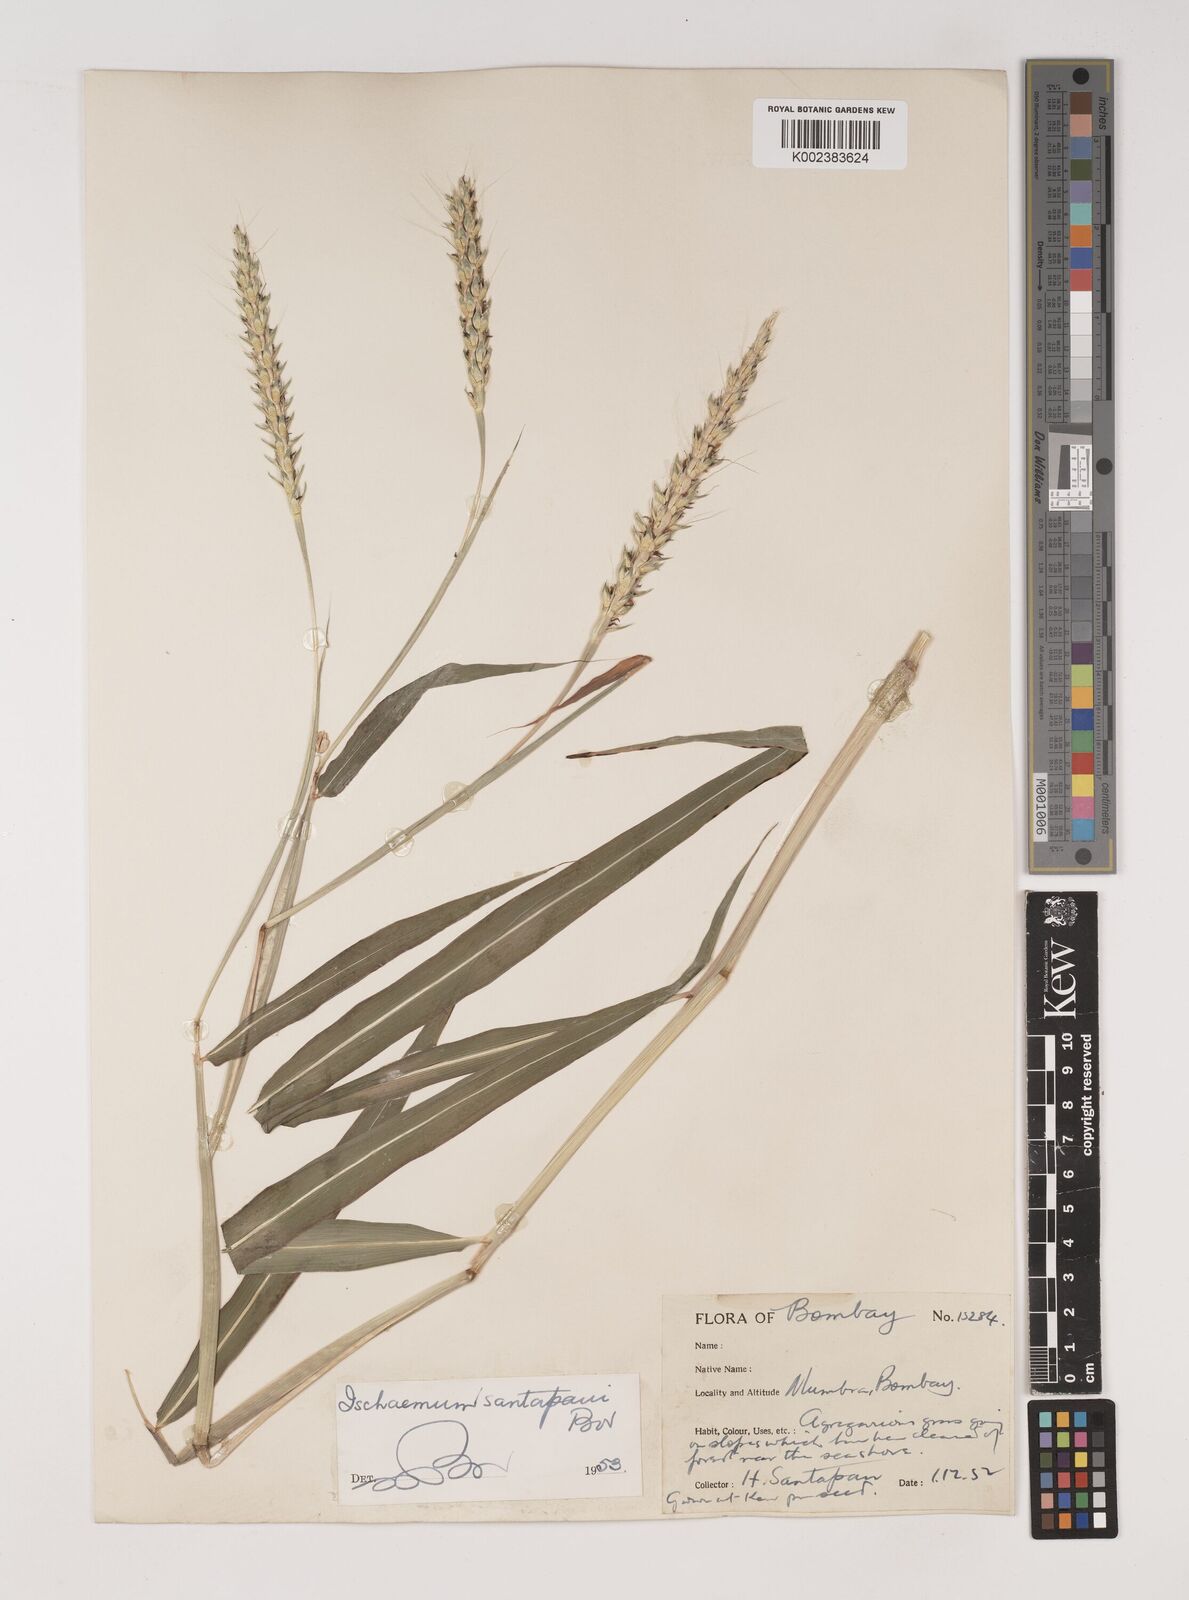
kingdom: Plantae
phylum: Tracheophyta
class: Liliopsida
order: Poales
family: Poaceae
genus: Ischaemum
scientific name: Ischaemum santapaui
